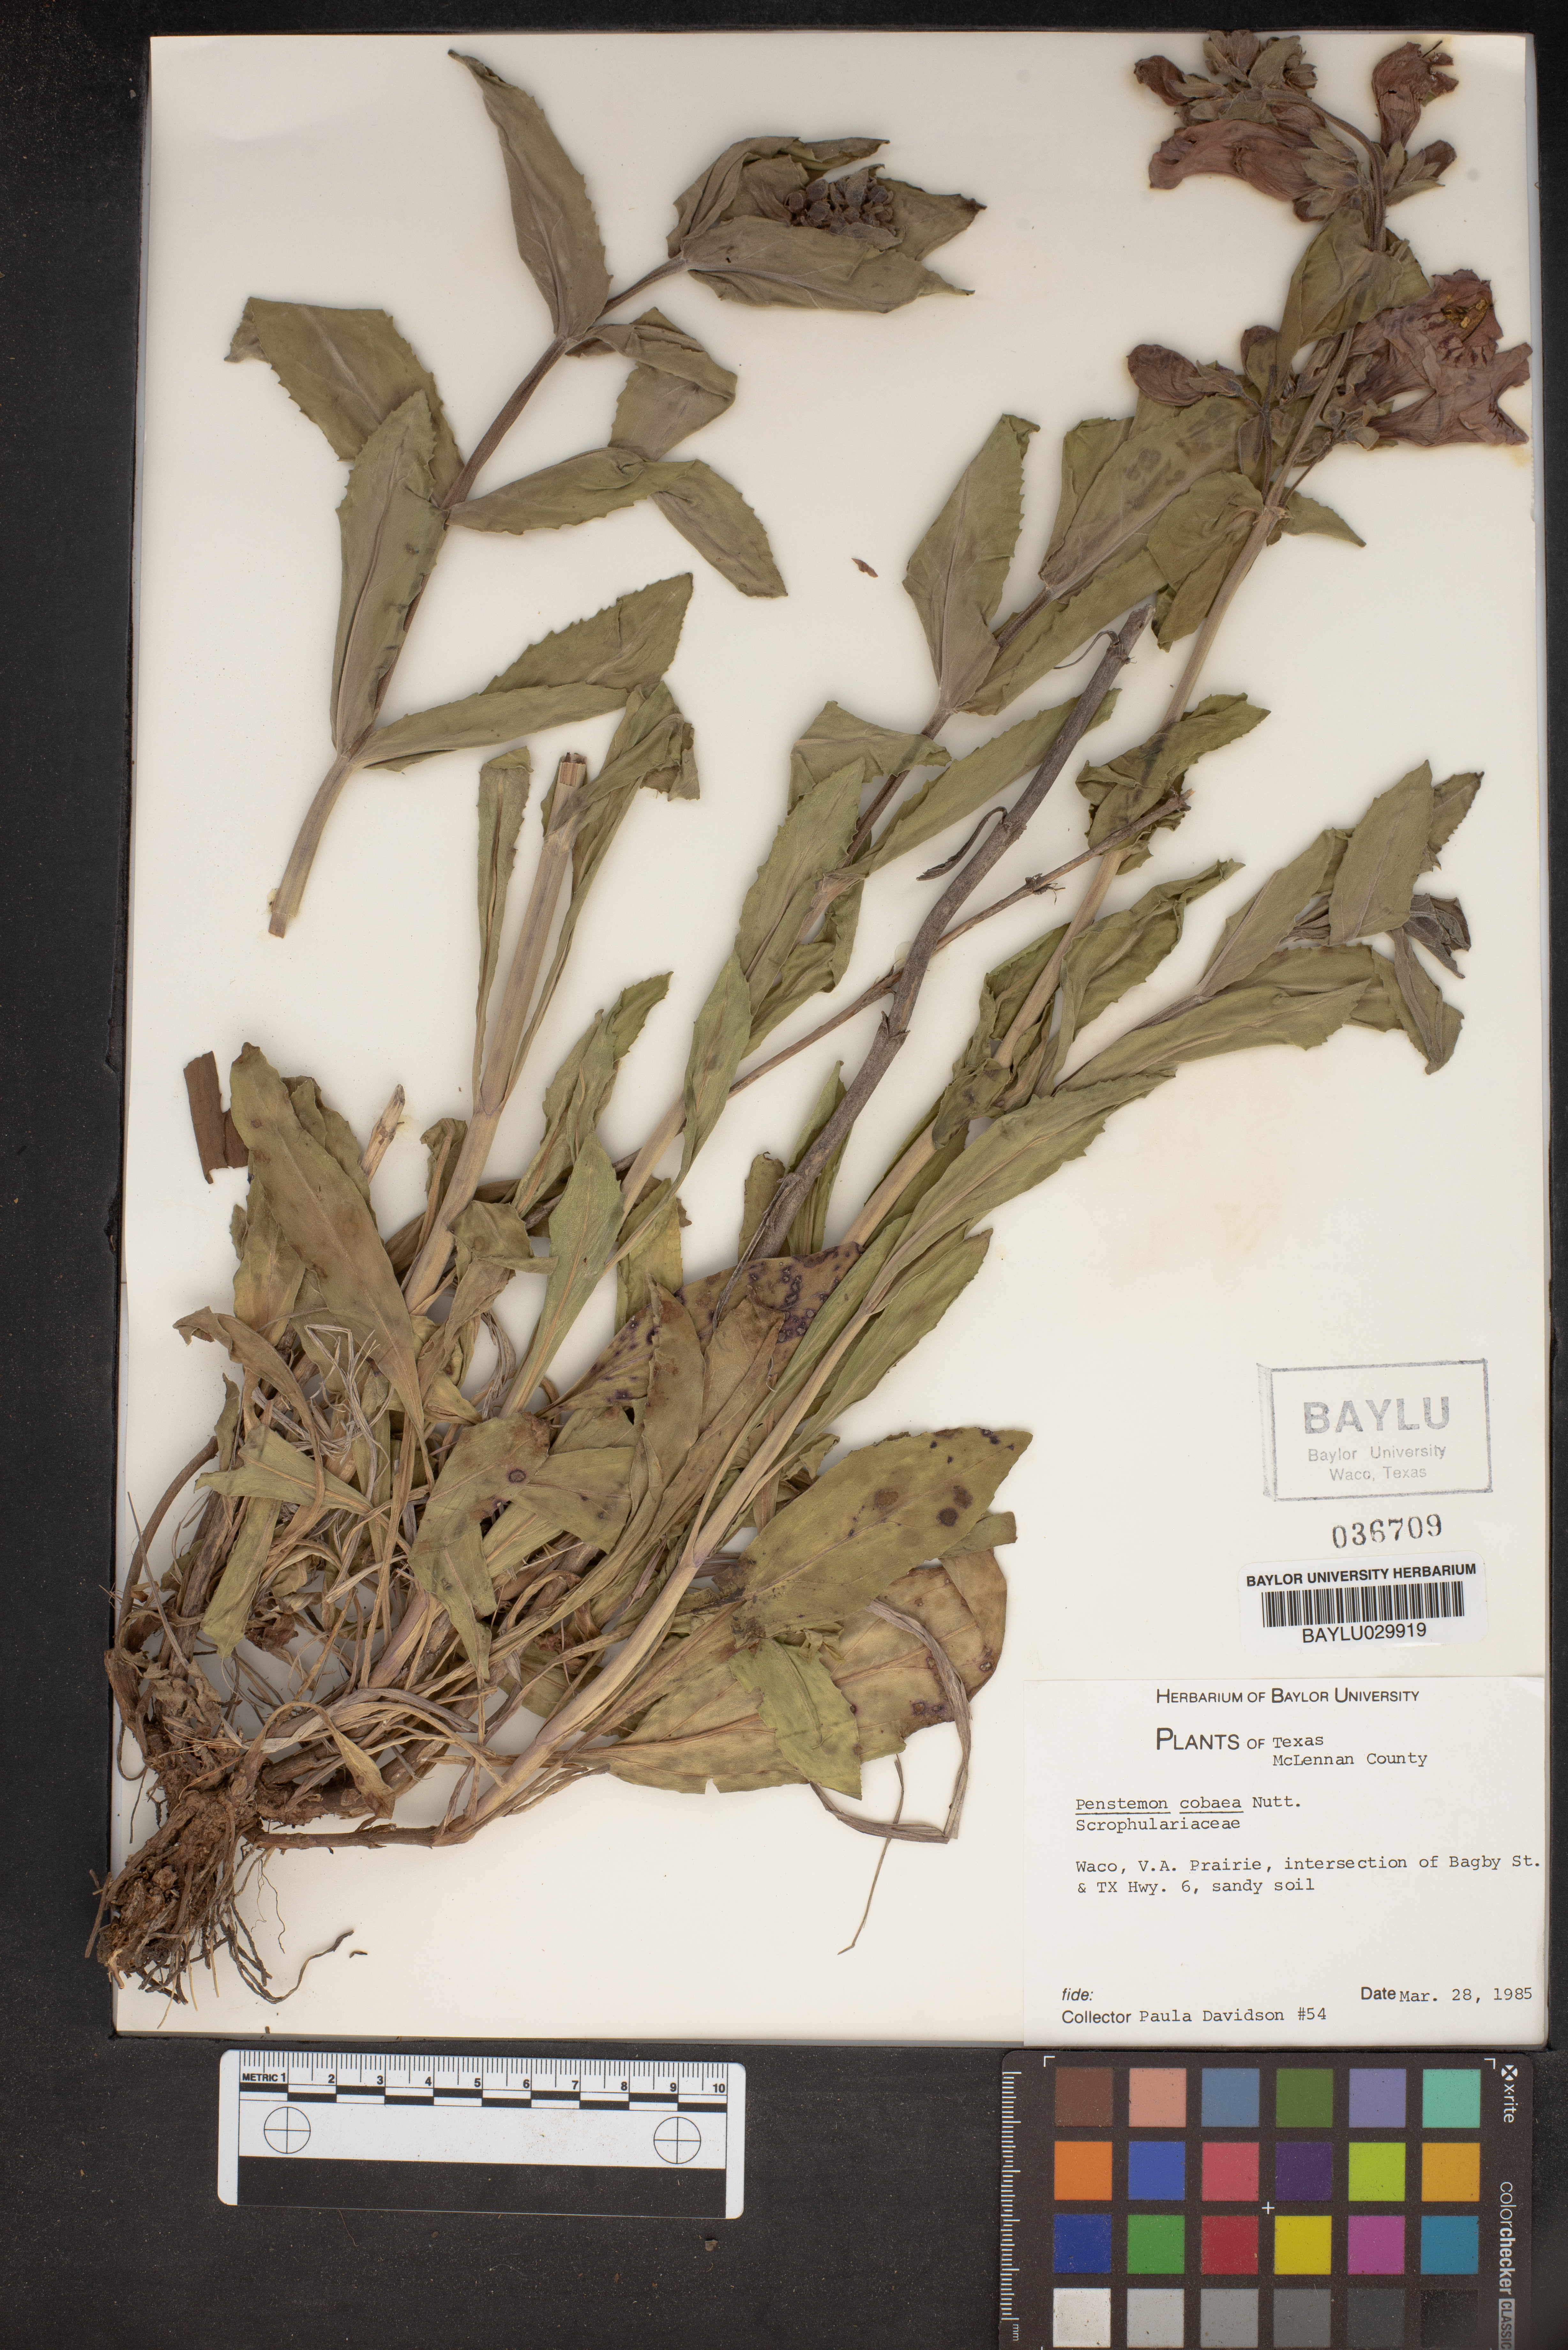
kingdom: Plantae
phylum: Tracheophyta
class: Magnoliopsida
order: Lamiales
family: Plantaginaceae
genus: Penstemon
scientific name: Penstemon cobaea
